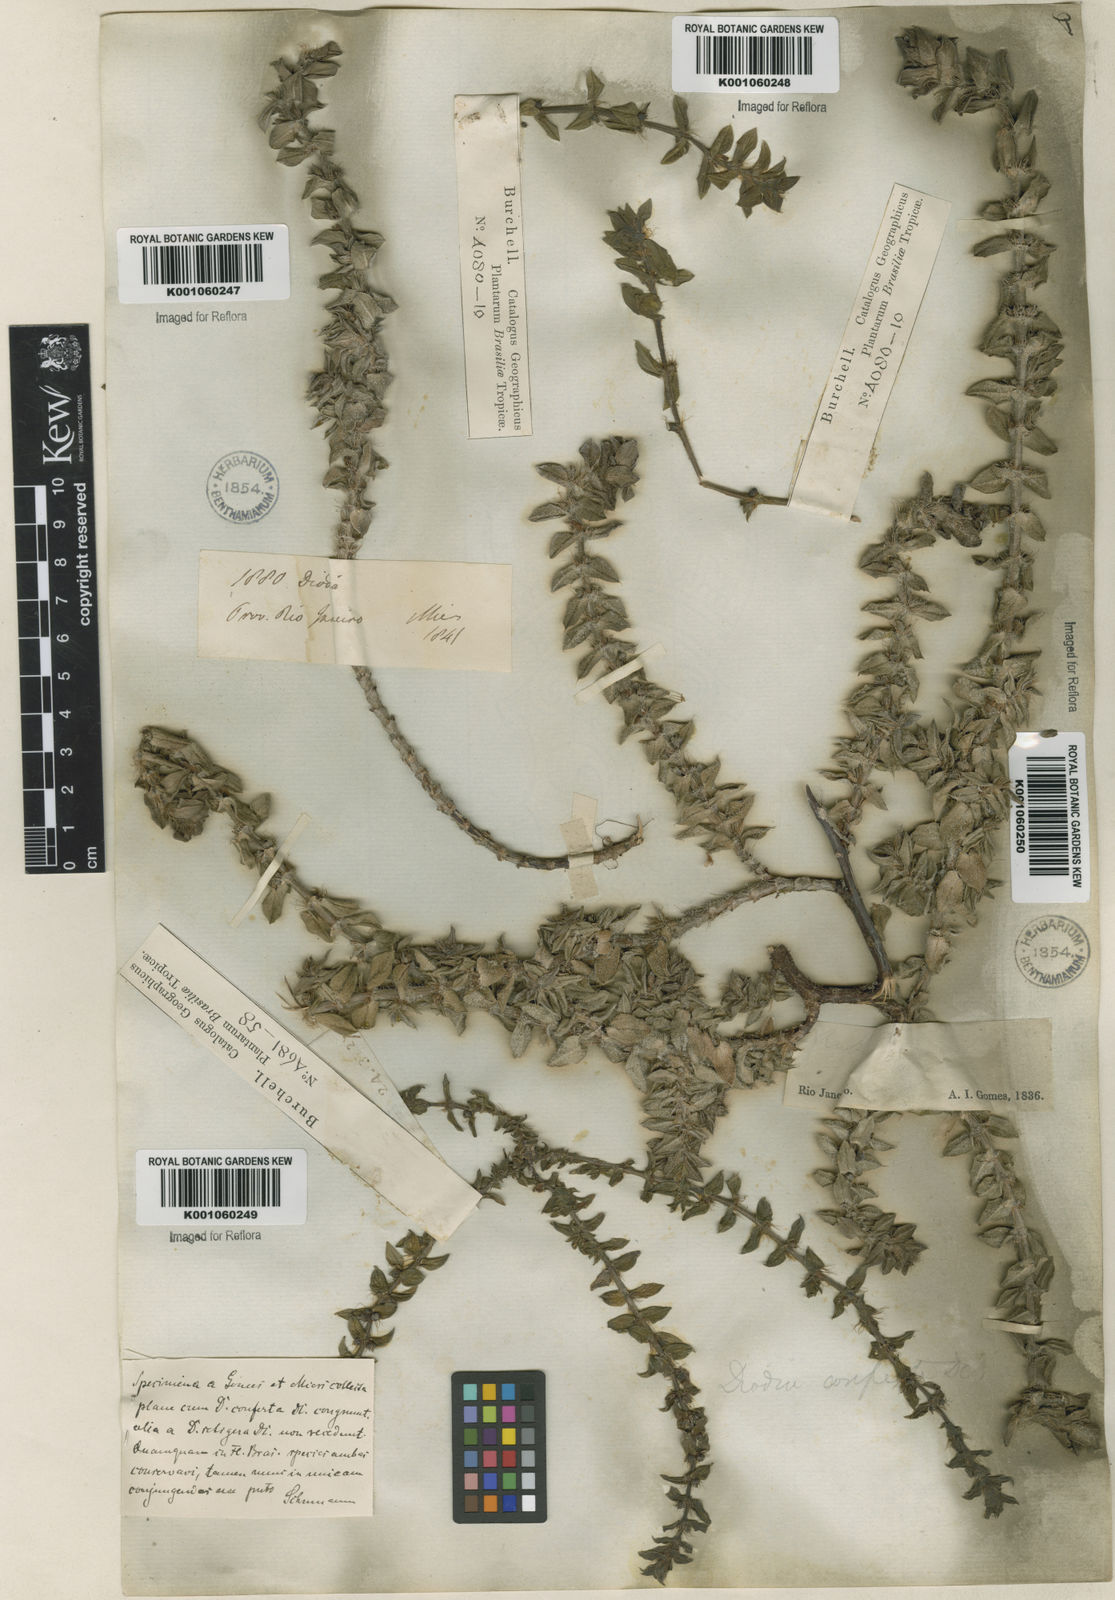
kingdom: Plantae
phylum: Tracheophyta
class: Magnoliopsida
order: Gentianales
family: Rubiaceae
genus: Hexasepalum
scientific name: Hexasepalum apiculatum
